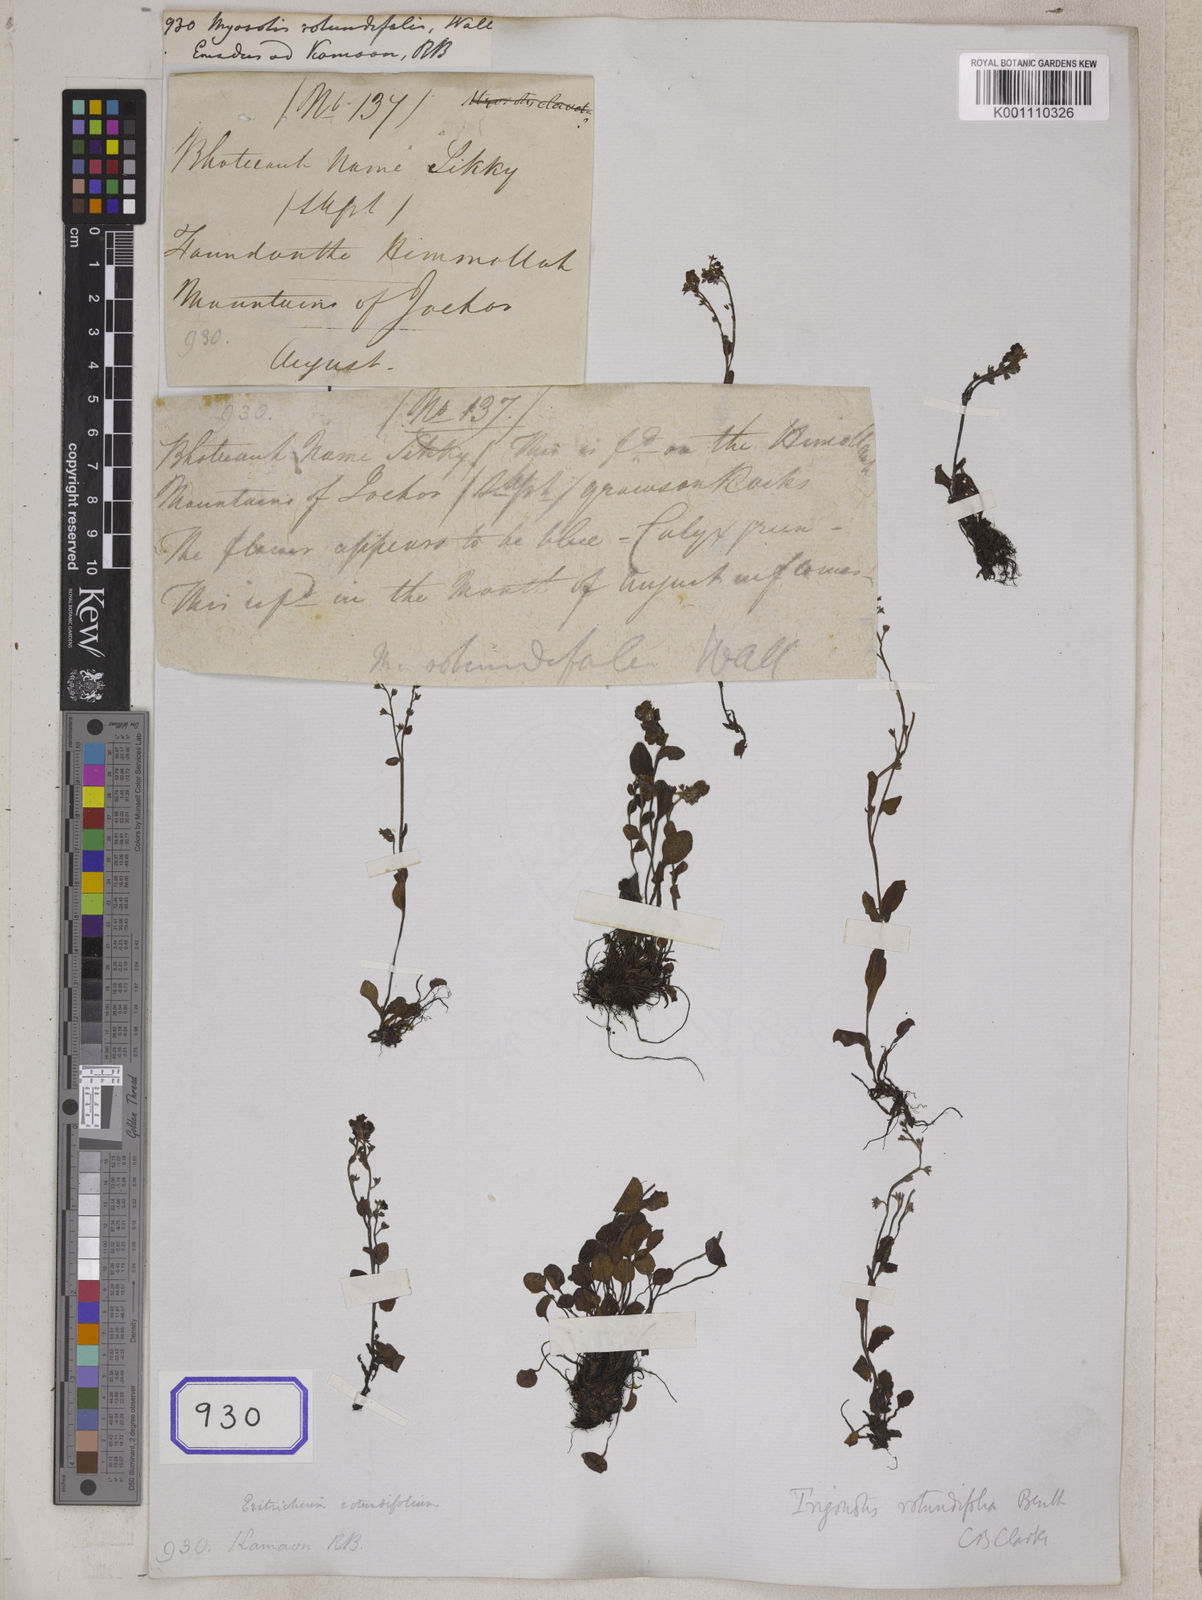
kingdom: Plantae
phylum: Tracheophyta
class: Magnoliopsida
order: Boraginales
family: Boraginaceae
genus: Myosotis
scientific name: Myosotis
